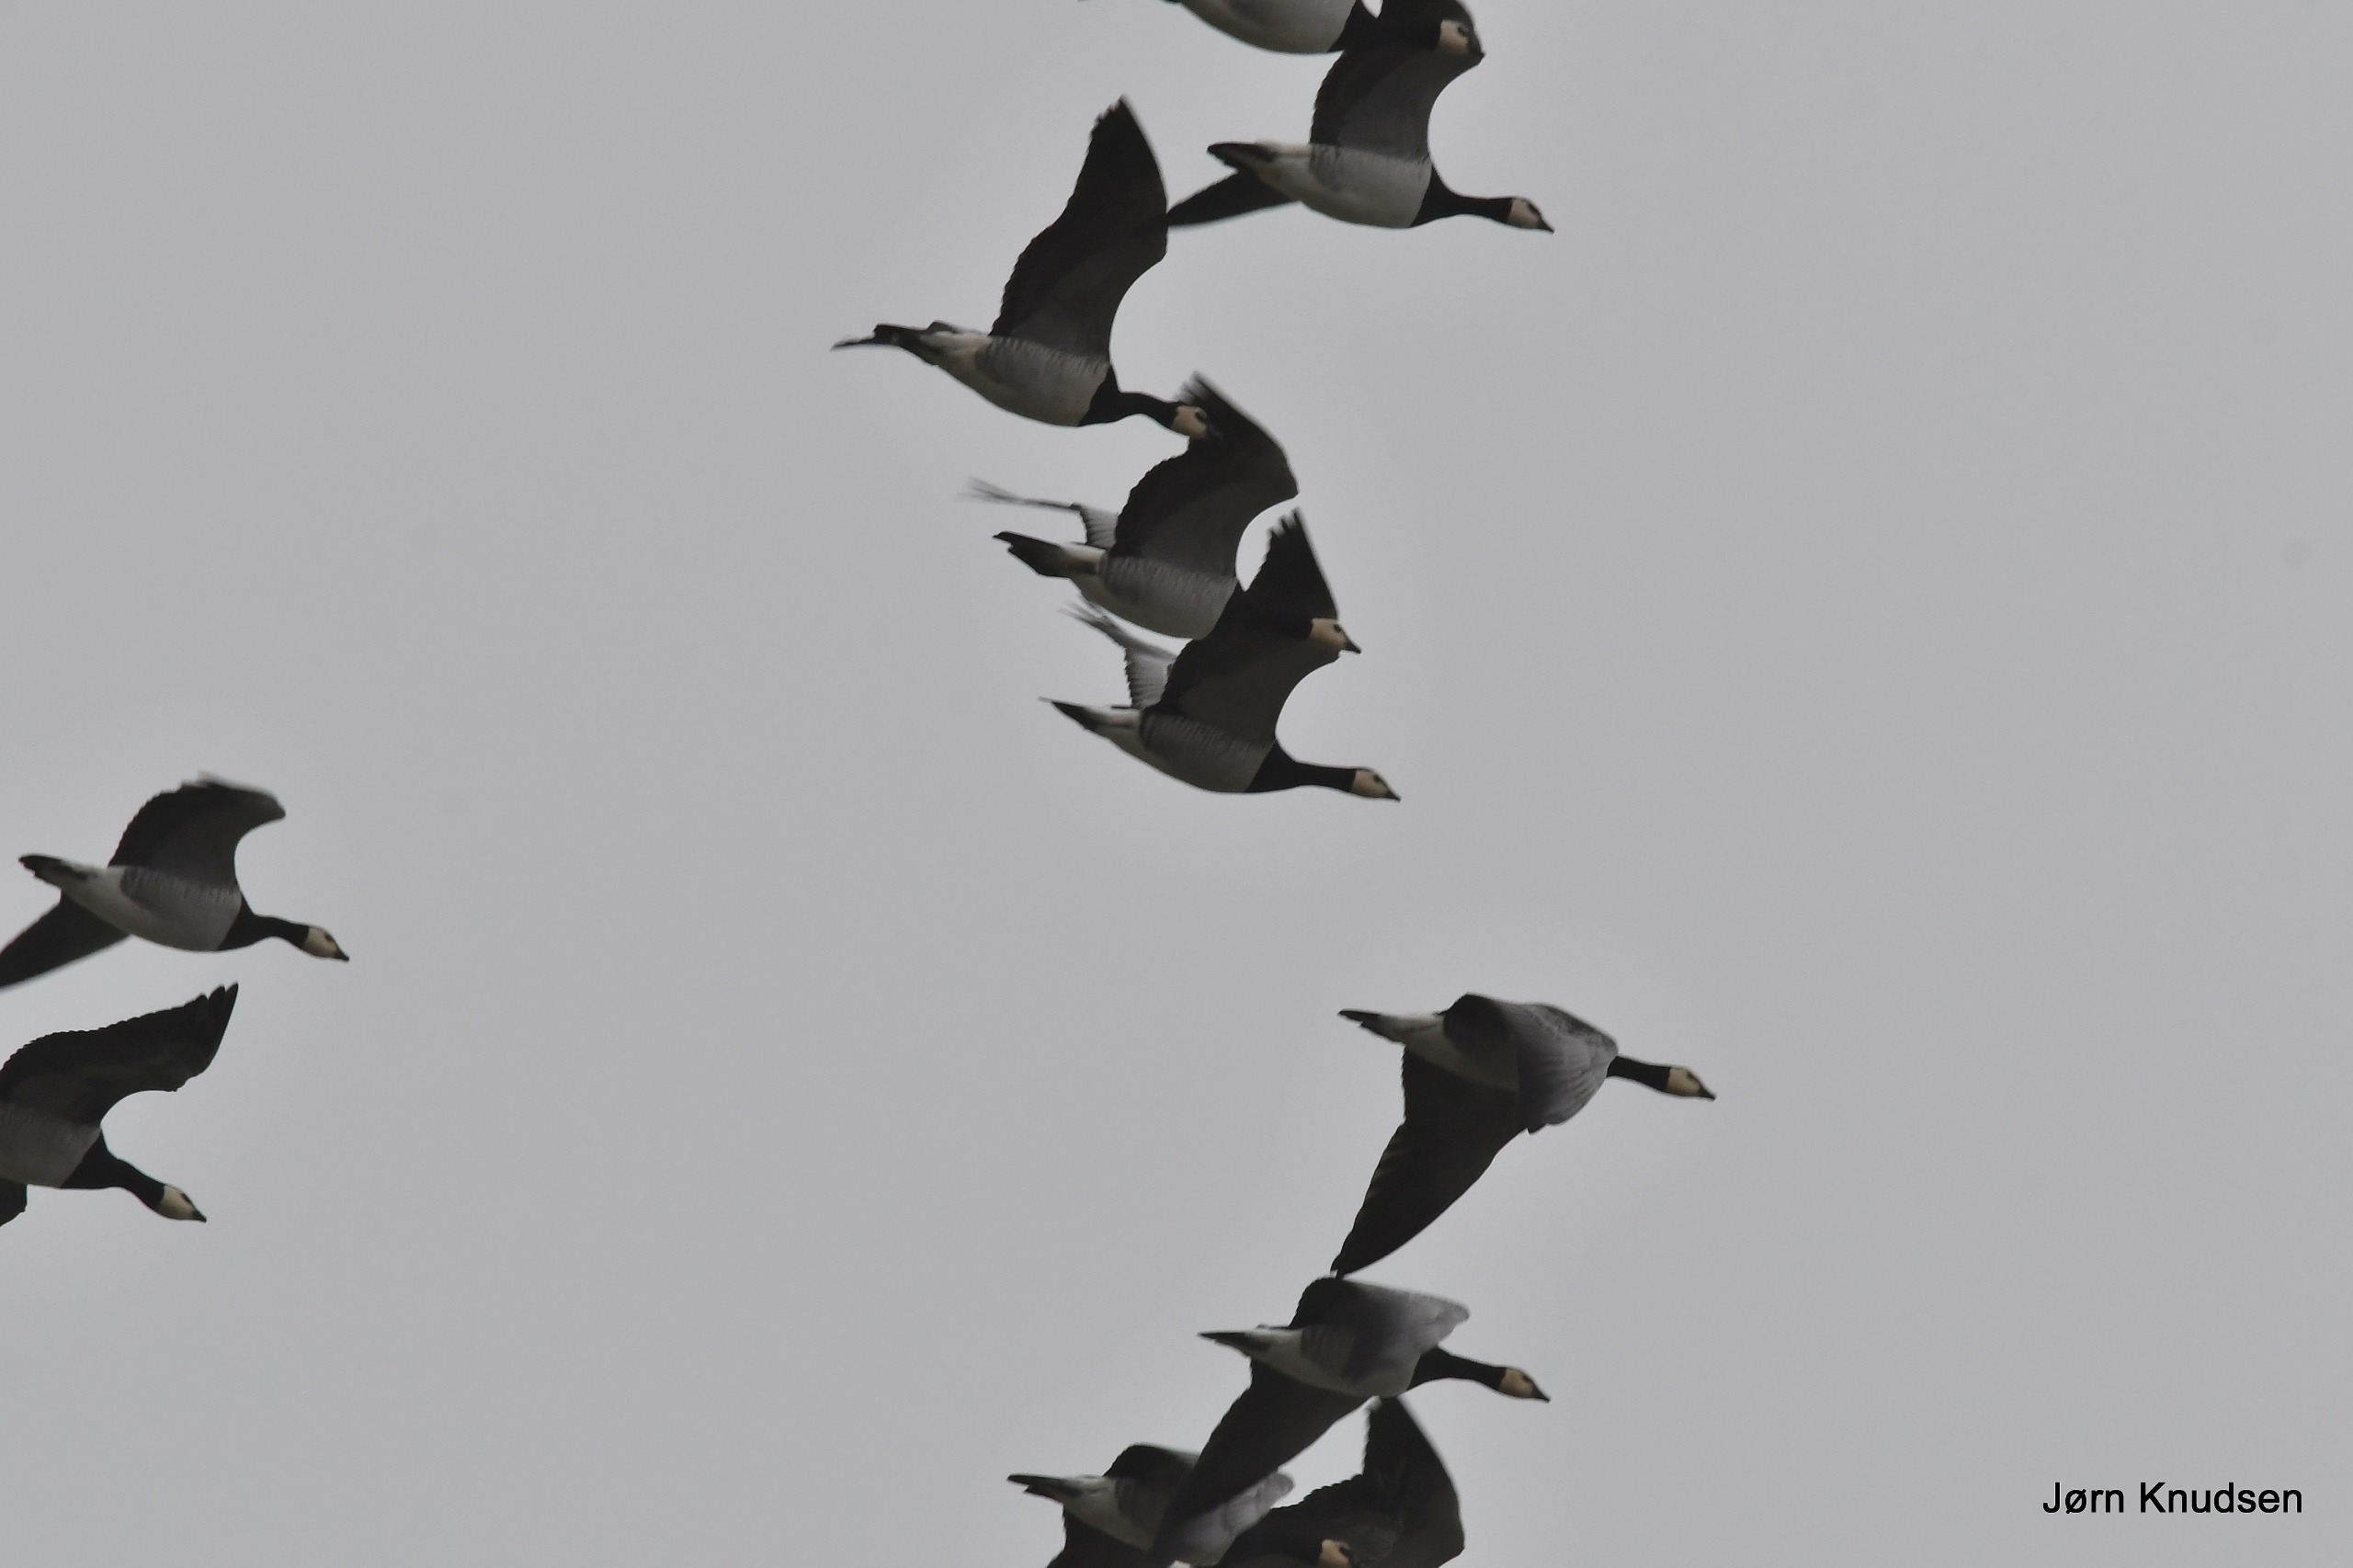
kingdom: Animalia
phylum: Chordata
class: Aves
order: Anseriformes
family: Anatidae
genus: Branta
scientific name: Branta leucopsis
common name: Bramgås
